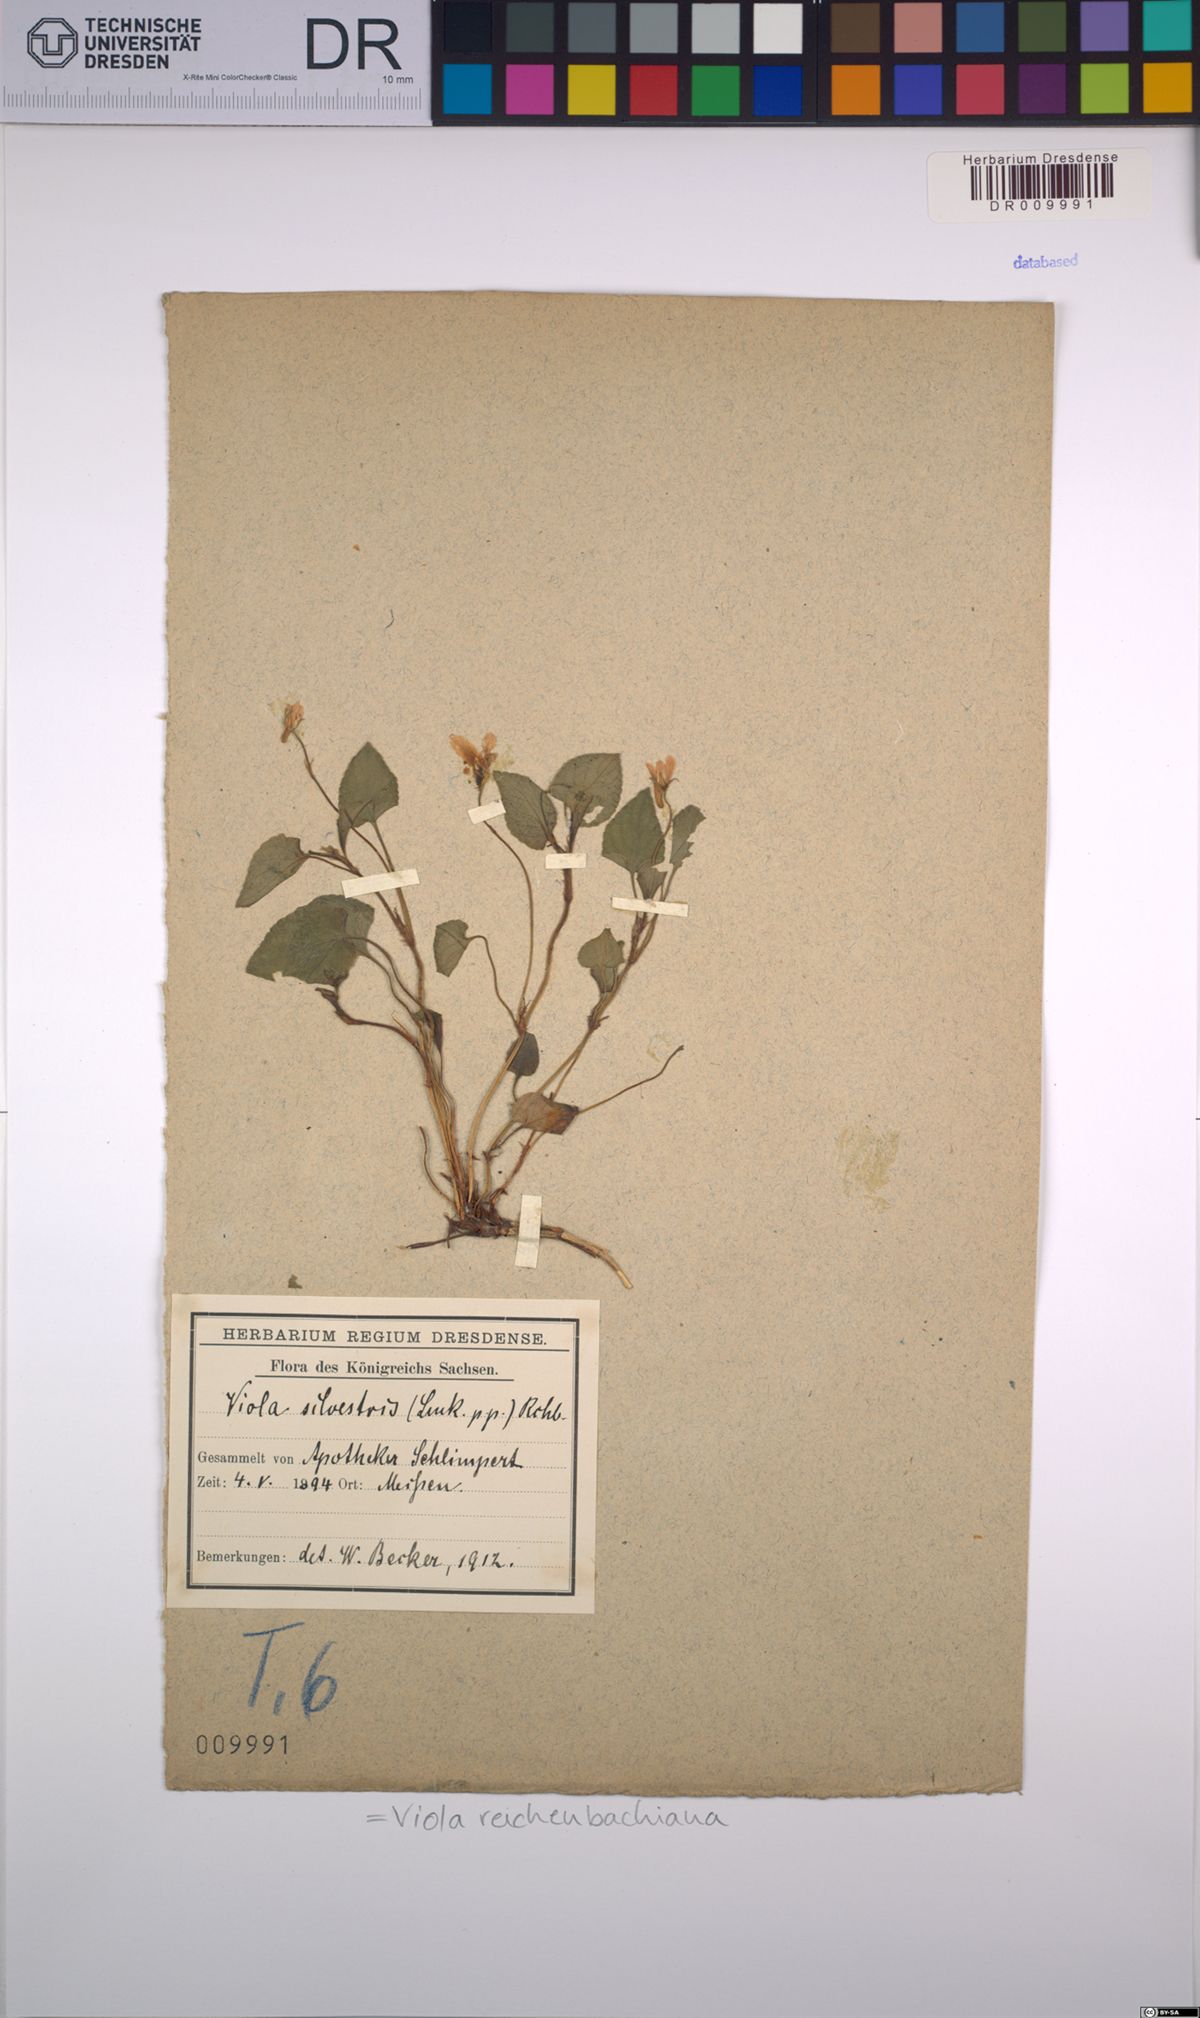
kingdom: Plantae
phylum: Tracheophyta
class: Magnoliopsida
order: Malpighiales
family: Violaceae
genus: Viola
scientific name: Viola reichenbachiana
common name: Early dog-violet
